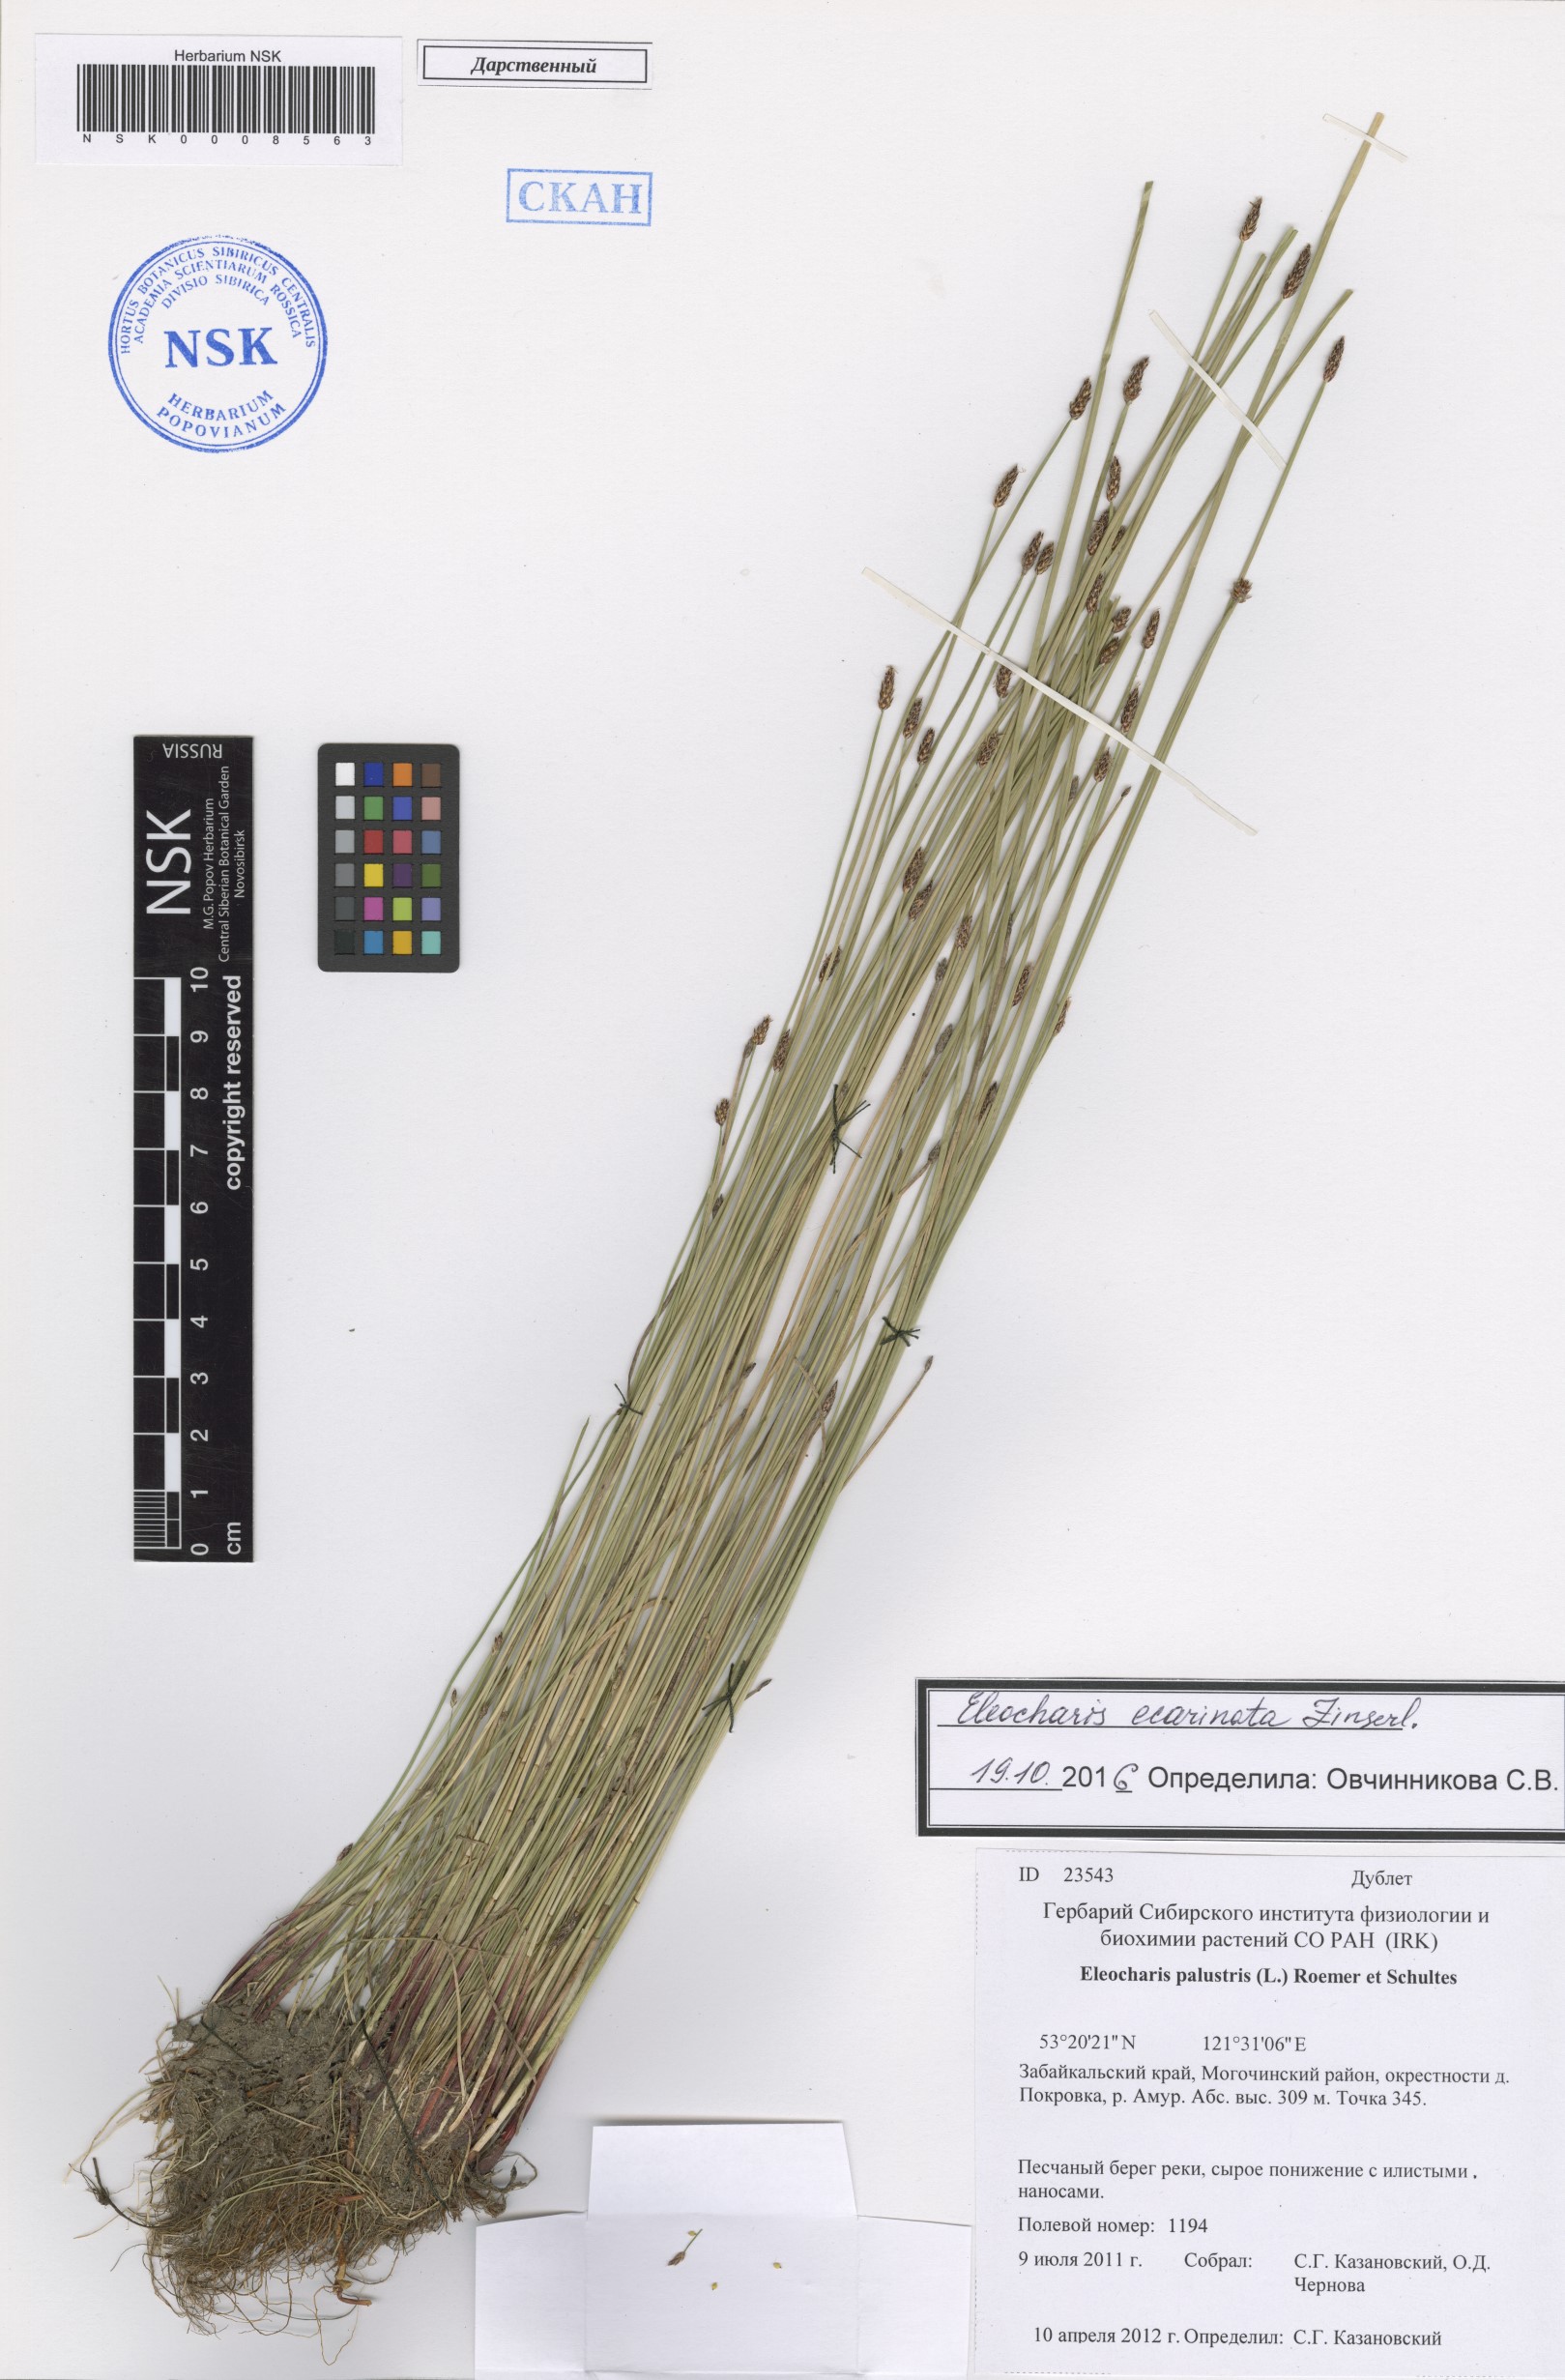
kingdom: Plantae
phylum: Tracheophyta
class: Liliopsida
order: Poales
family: Cyperaceae
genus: Eleocharis
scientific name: Eleocharis palustris
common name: Common spike-rush
